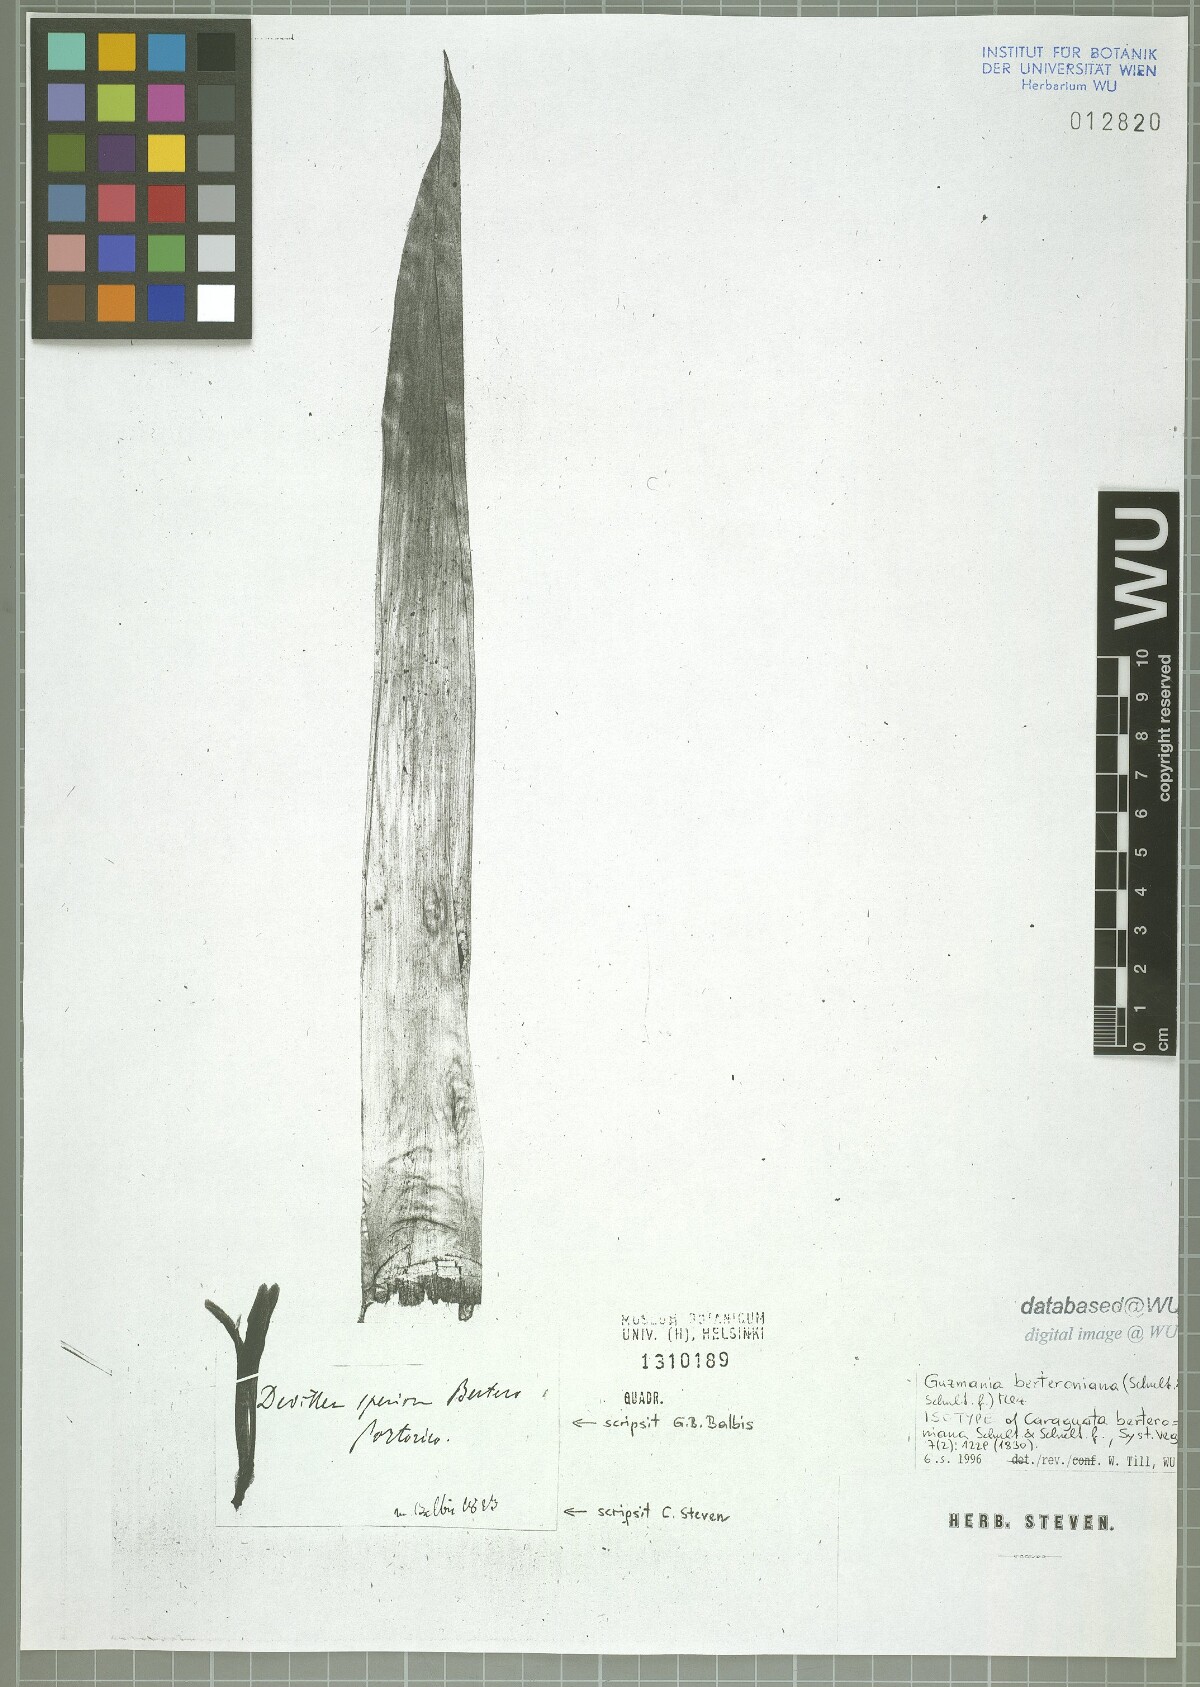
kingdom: Plantae
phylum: Tracheophyta
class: Liliopsida
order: Poales
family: Bromeliaceae
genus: Guzmania
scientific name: Guzmania berteroniana
